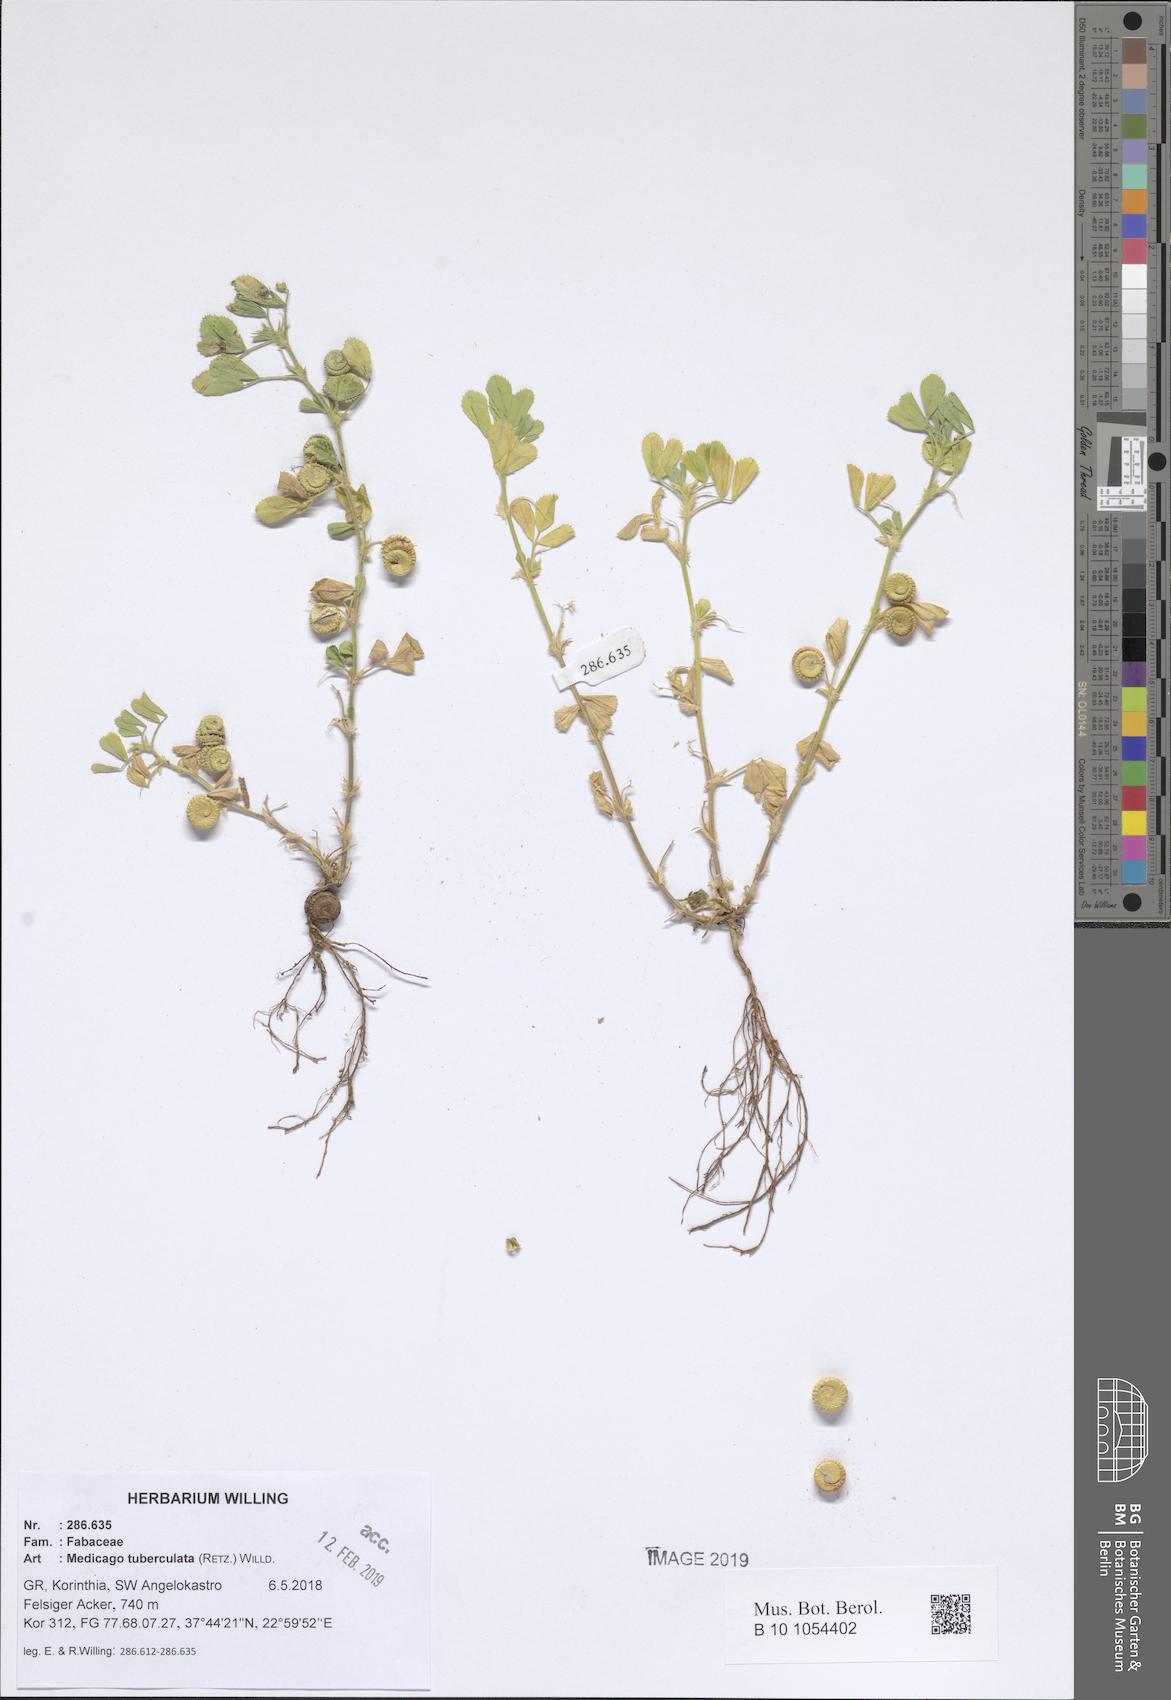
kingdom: Plantae
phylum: Tracheophyta
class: Magnoliopsida
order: Fabales
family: Fabaceae
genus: Medicago
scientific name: Medicago turbinata
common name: Southern medick
